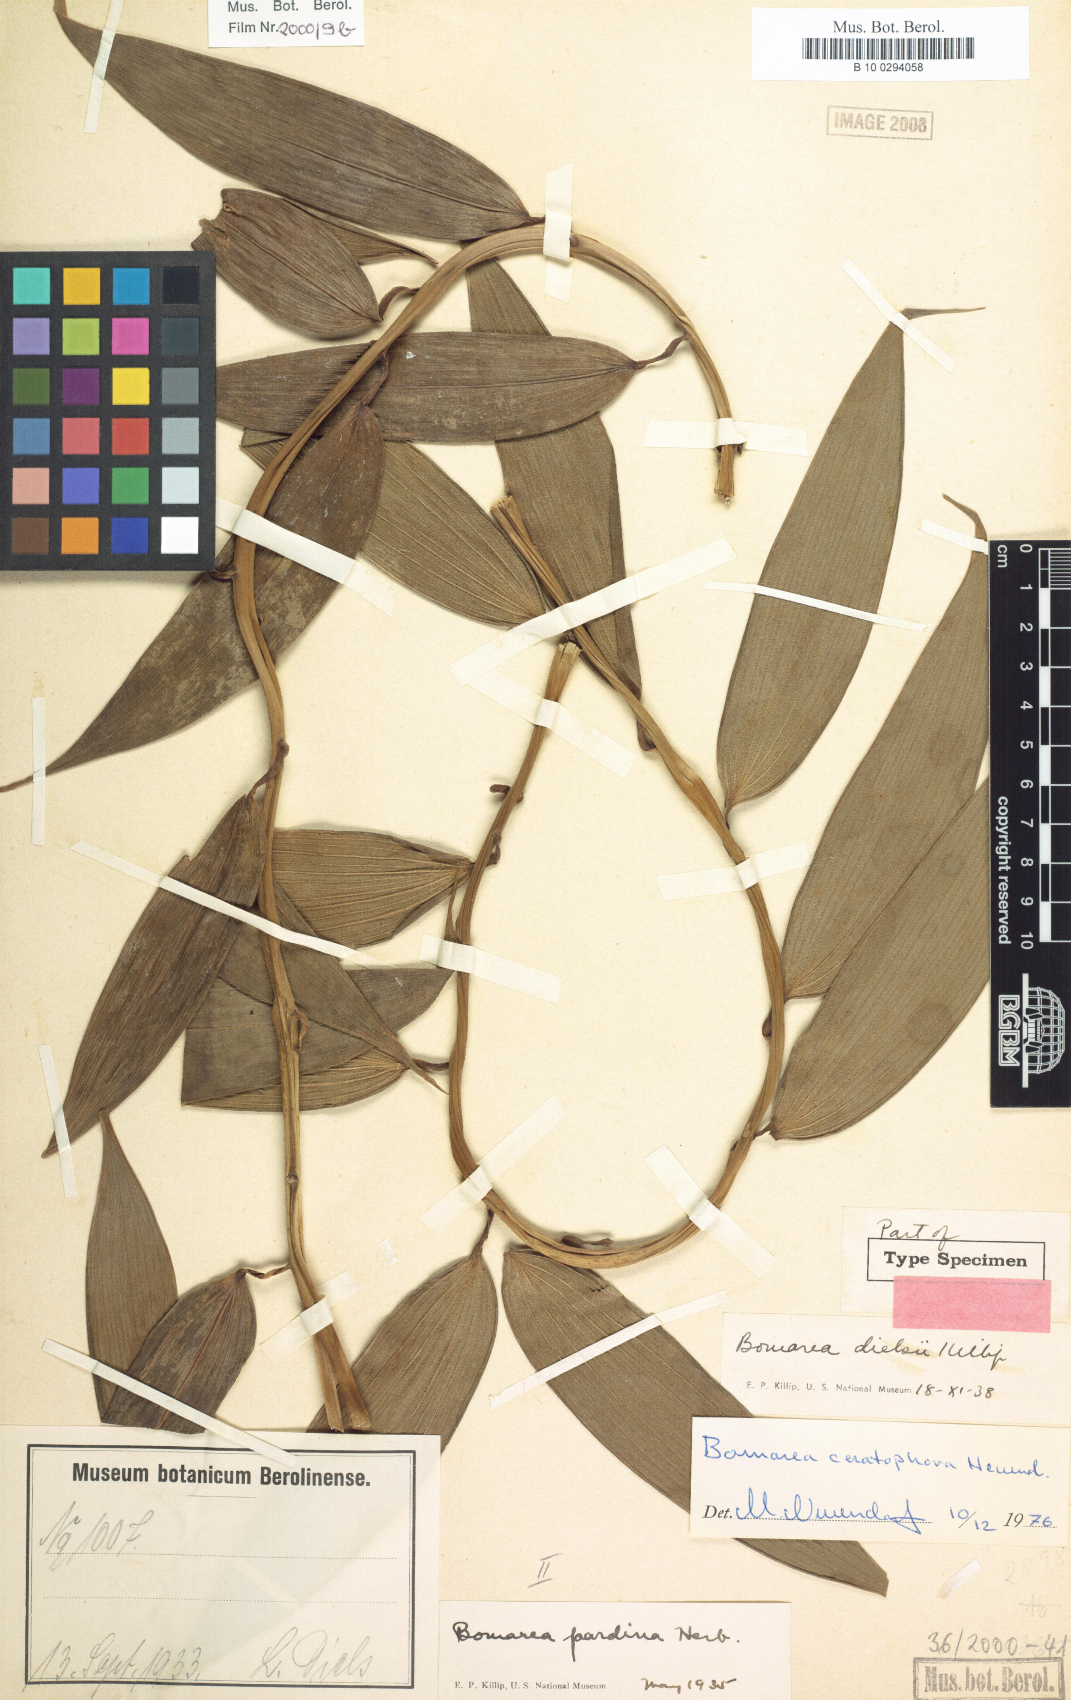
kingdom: Plantae
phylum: Tracheophyta
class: Liliopsida
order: Liliales
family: Alstroemeriaceae
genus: Bomarea
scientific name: Bomarea ceratophora
